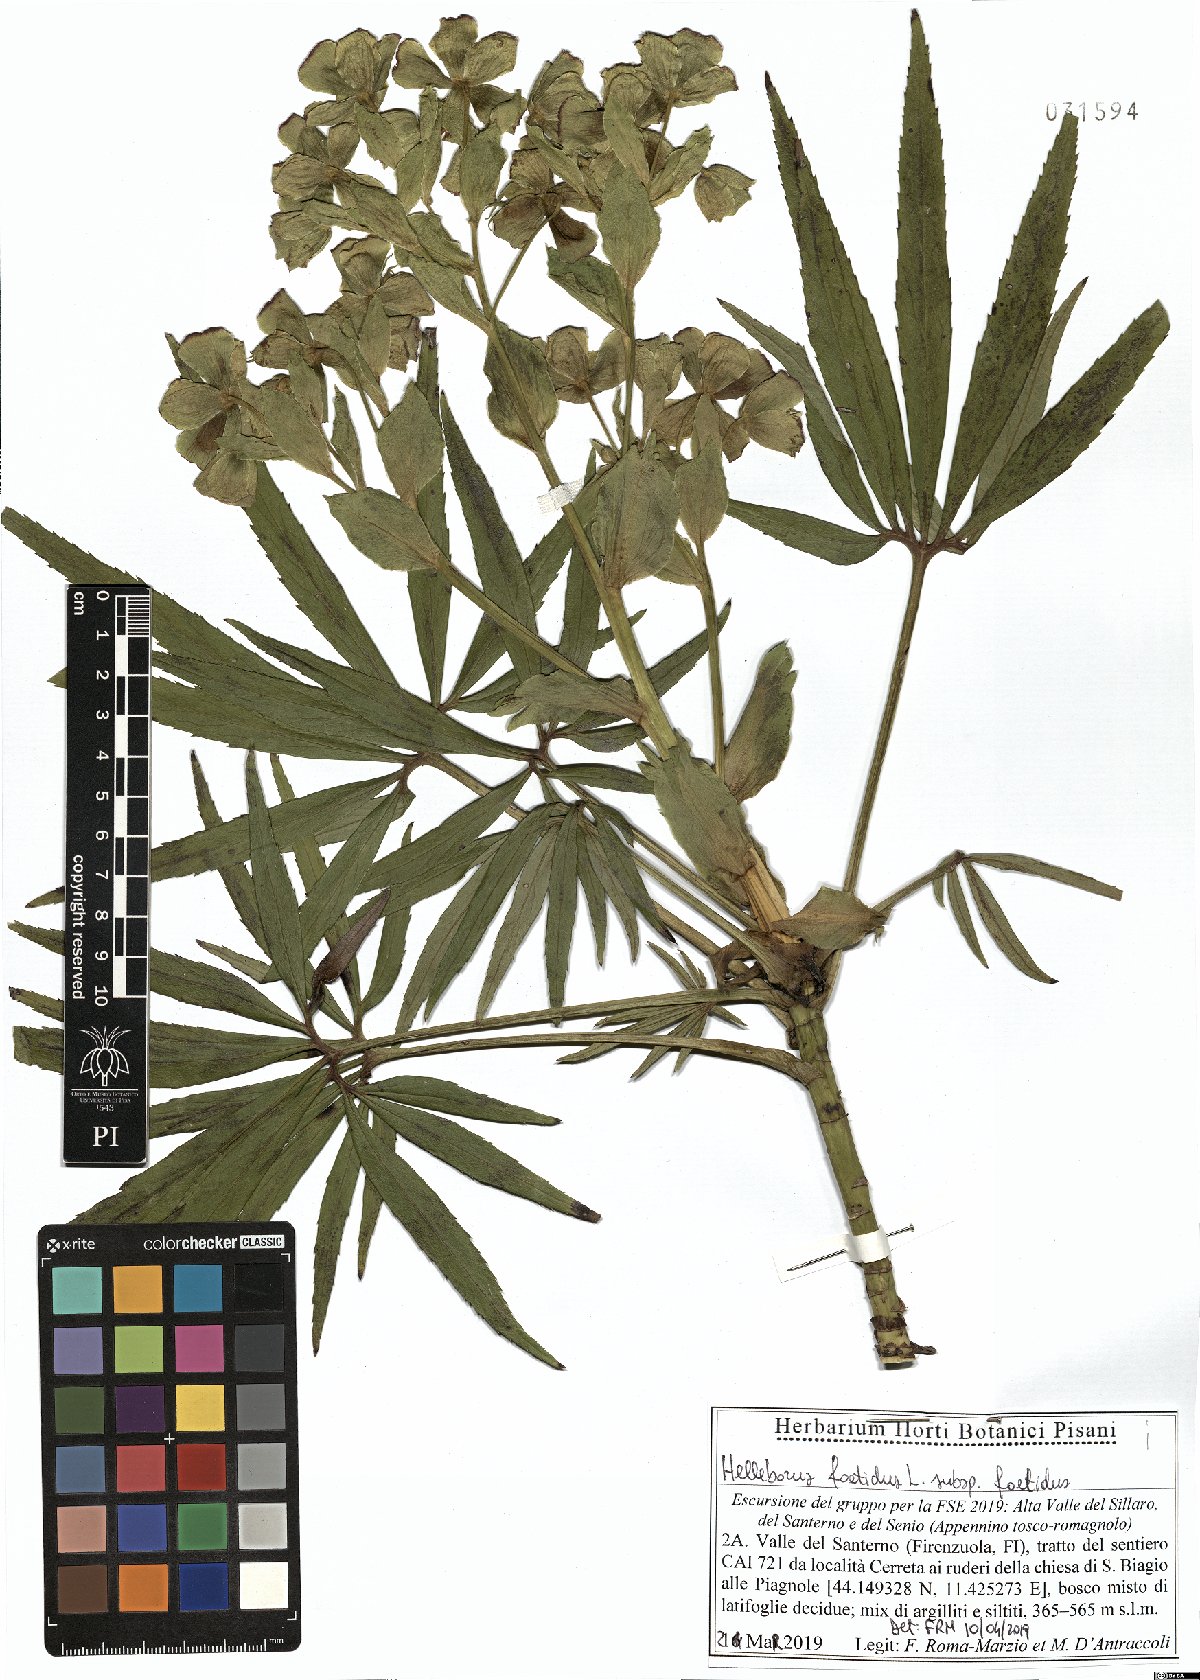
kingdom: Plantae
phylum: Tracheophyta
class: Magnoliopsida
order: Ranunculales
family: Ranunculaceae
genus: Helleborus
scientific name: Helleborus foetidus
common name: Stinking hellebore
